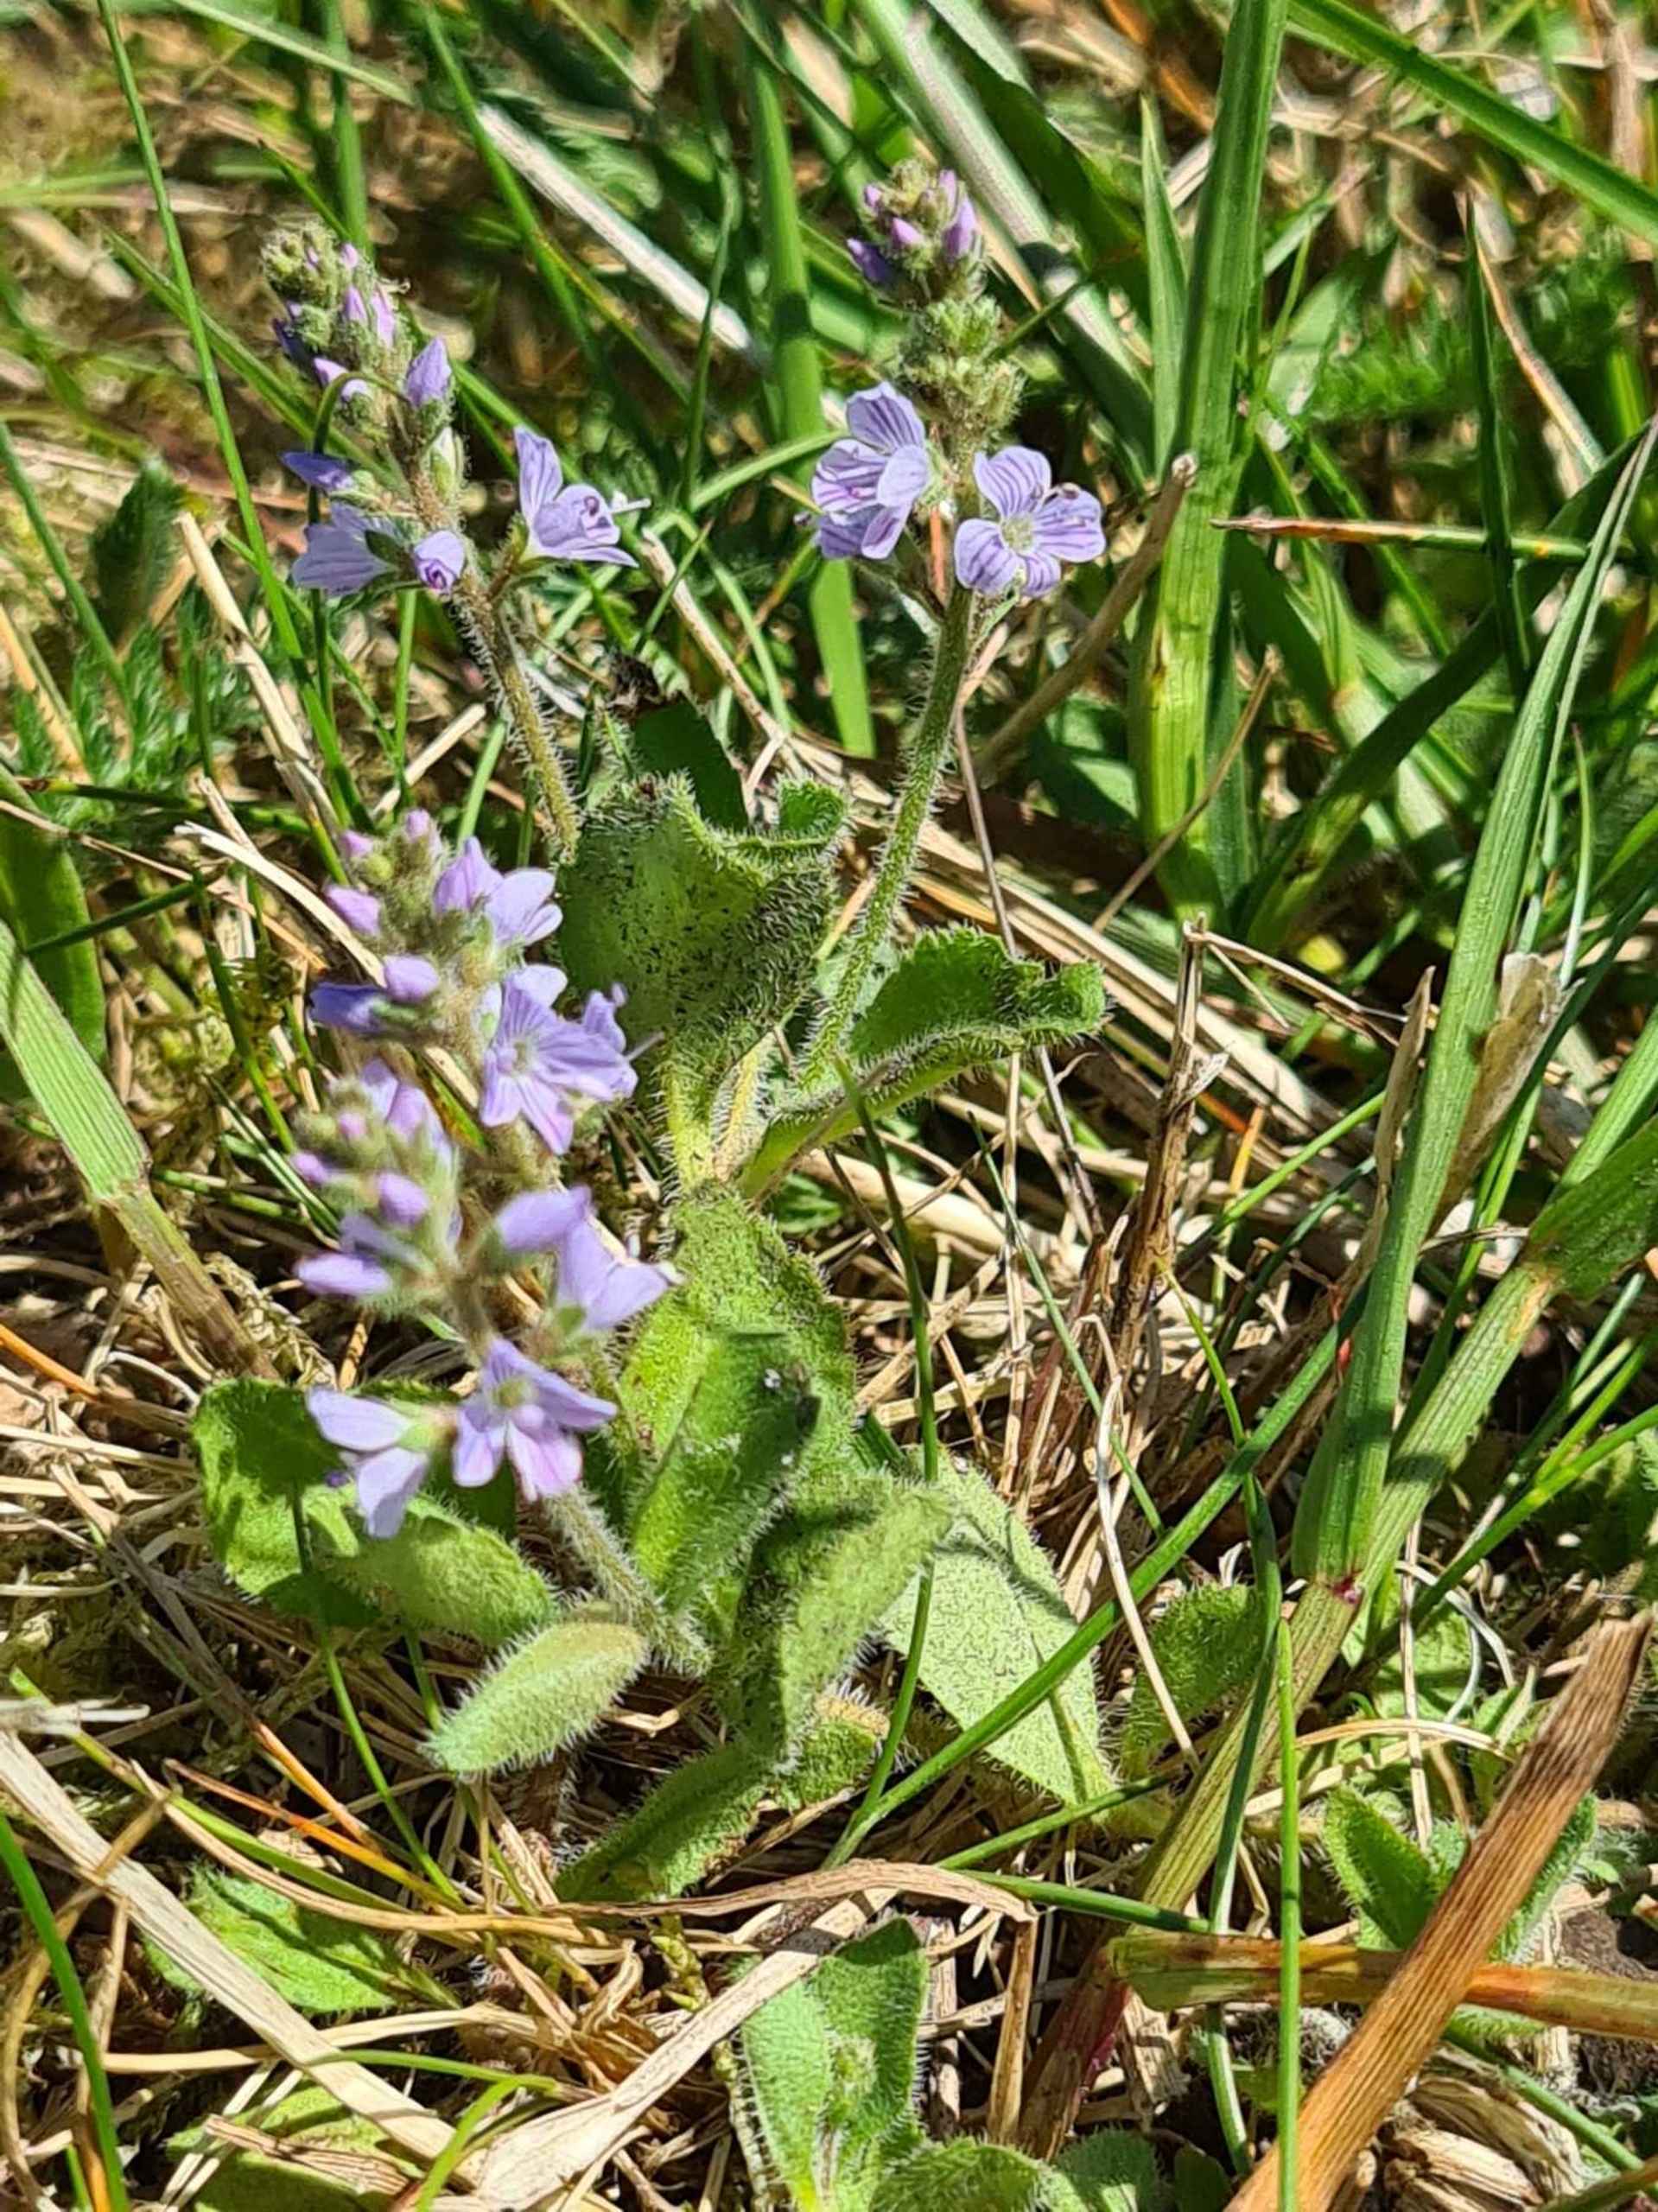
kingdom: Plantae
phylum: Tracheophyta
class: Magnoliopsida
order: Lamiales
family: Plantaginaceae
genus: Veronica
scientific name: Veronica officinalis
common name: Læge-ærenpris
